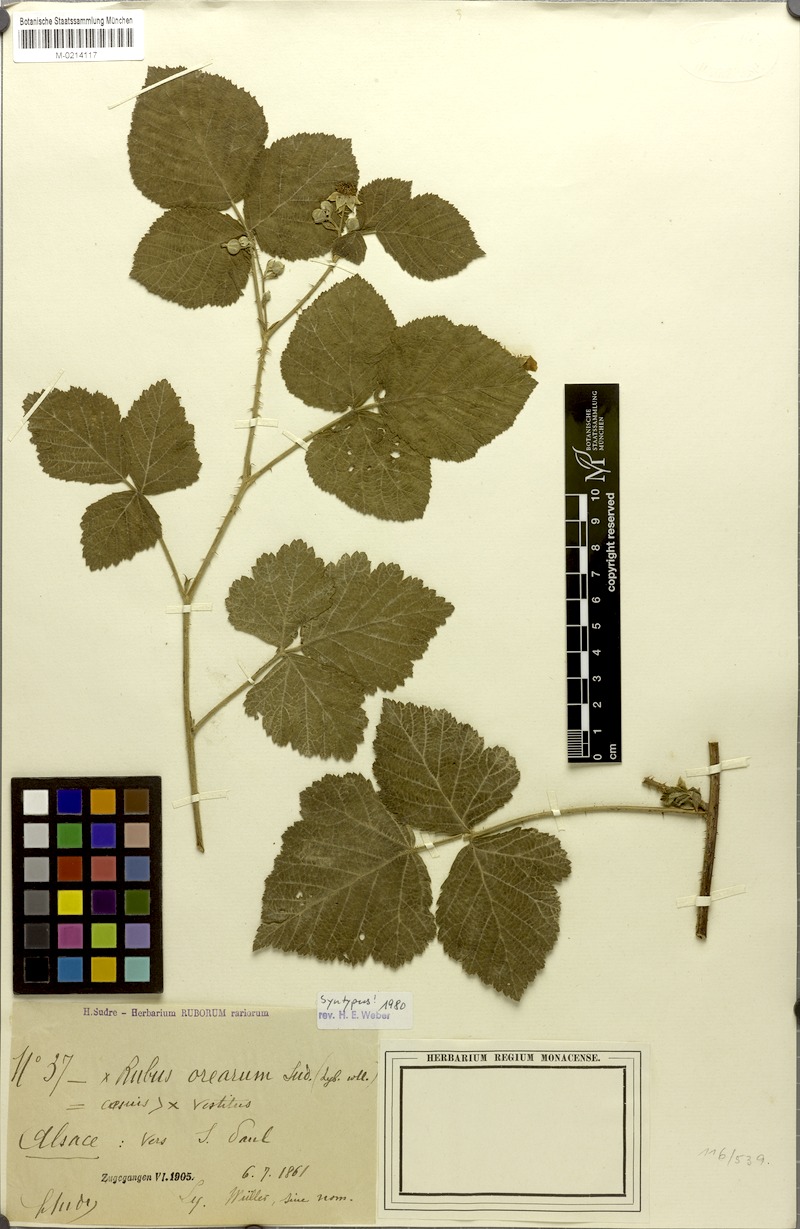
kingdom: Plantae
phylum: Tracheophyta
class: Magnoliopsida
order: Rosales
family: Rosaceae
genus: Rubus
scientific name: Rubus orearum
